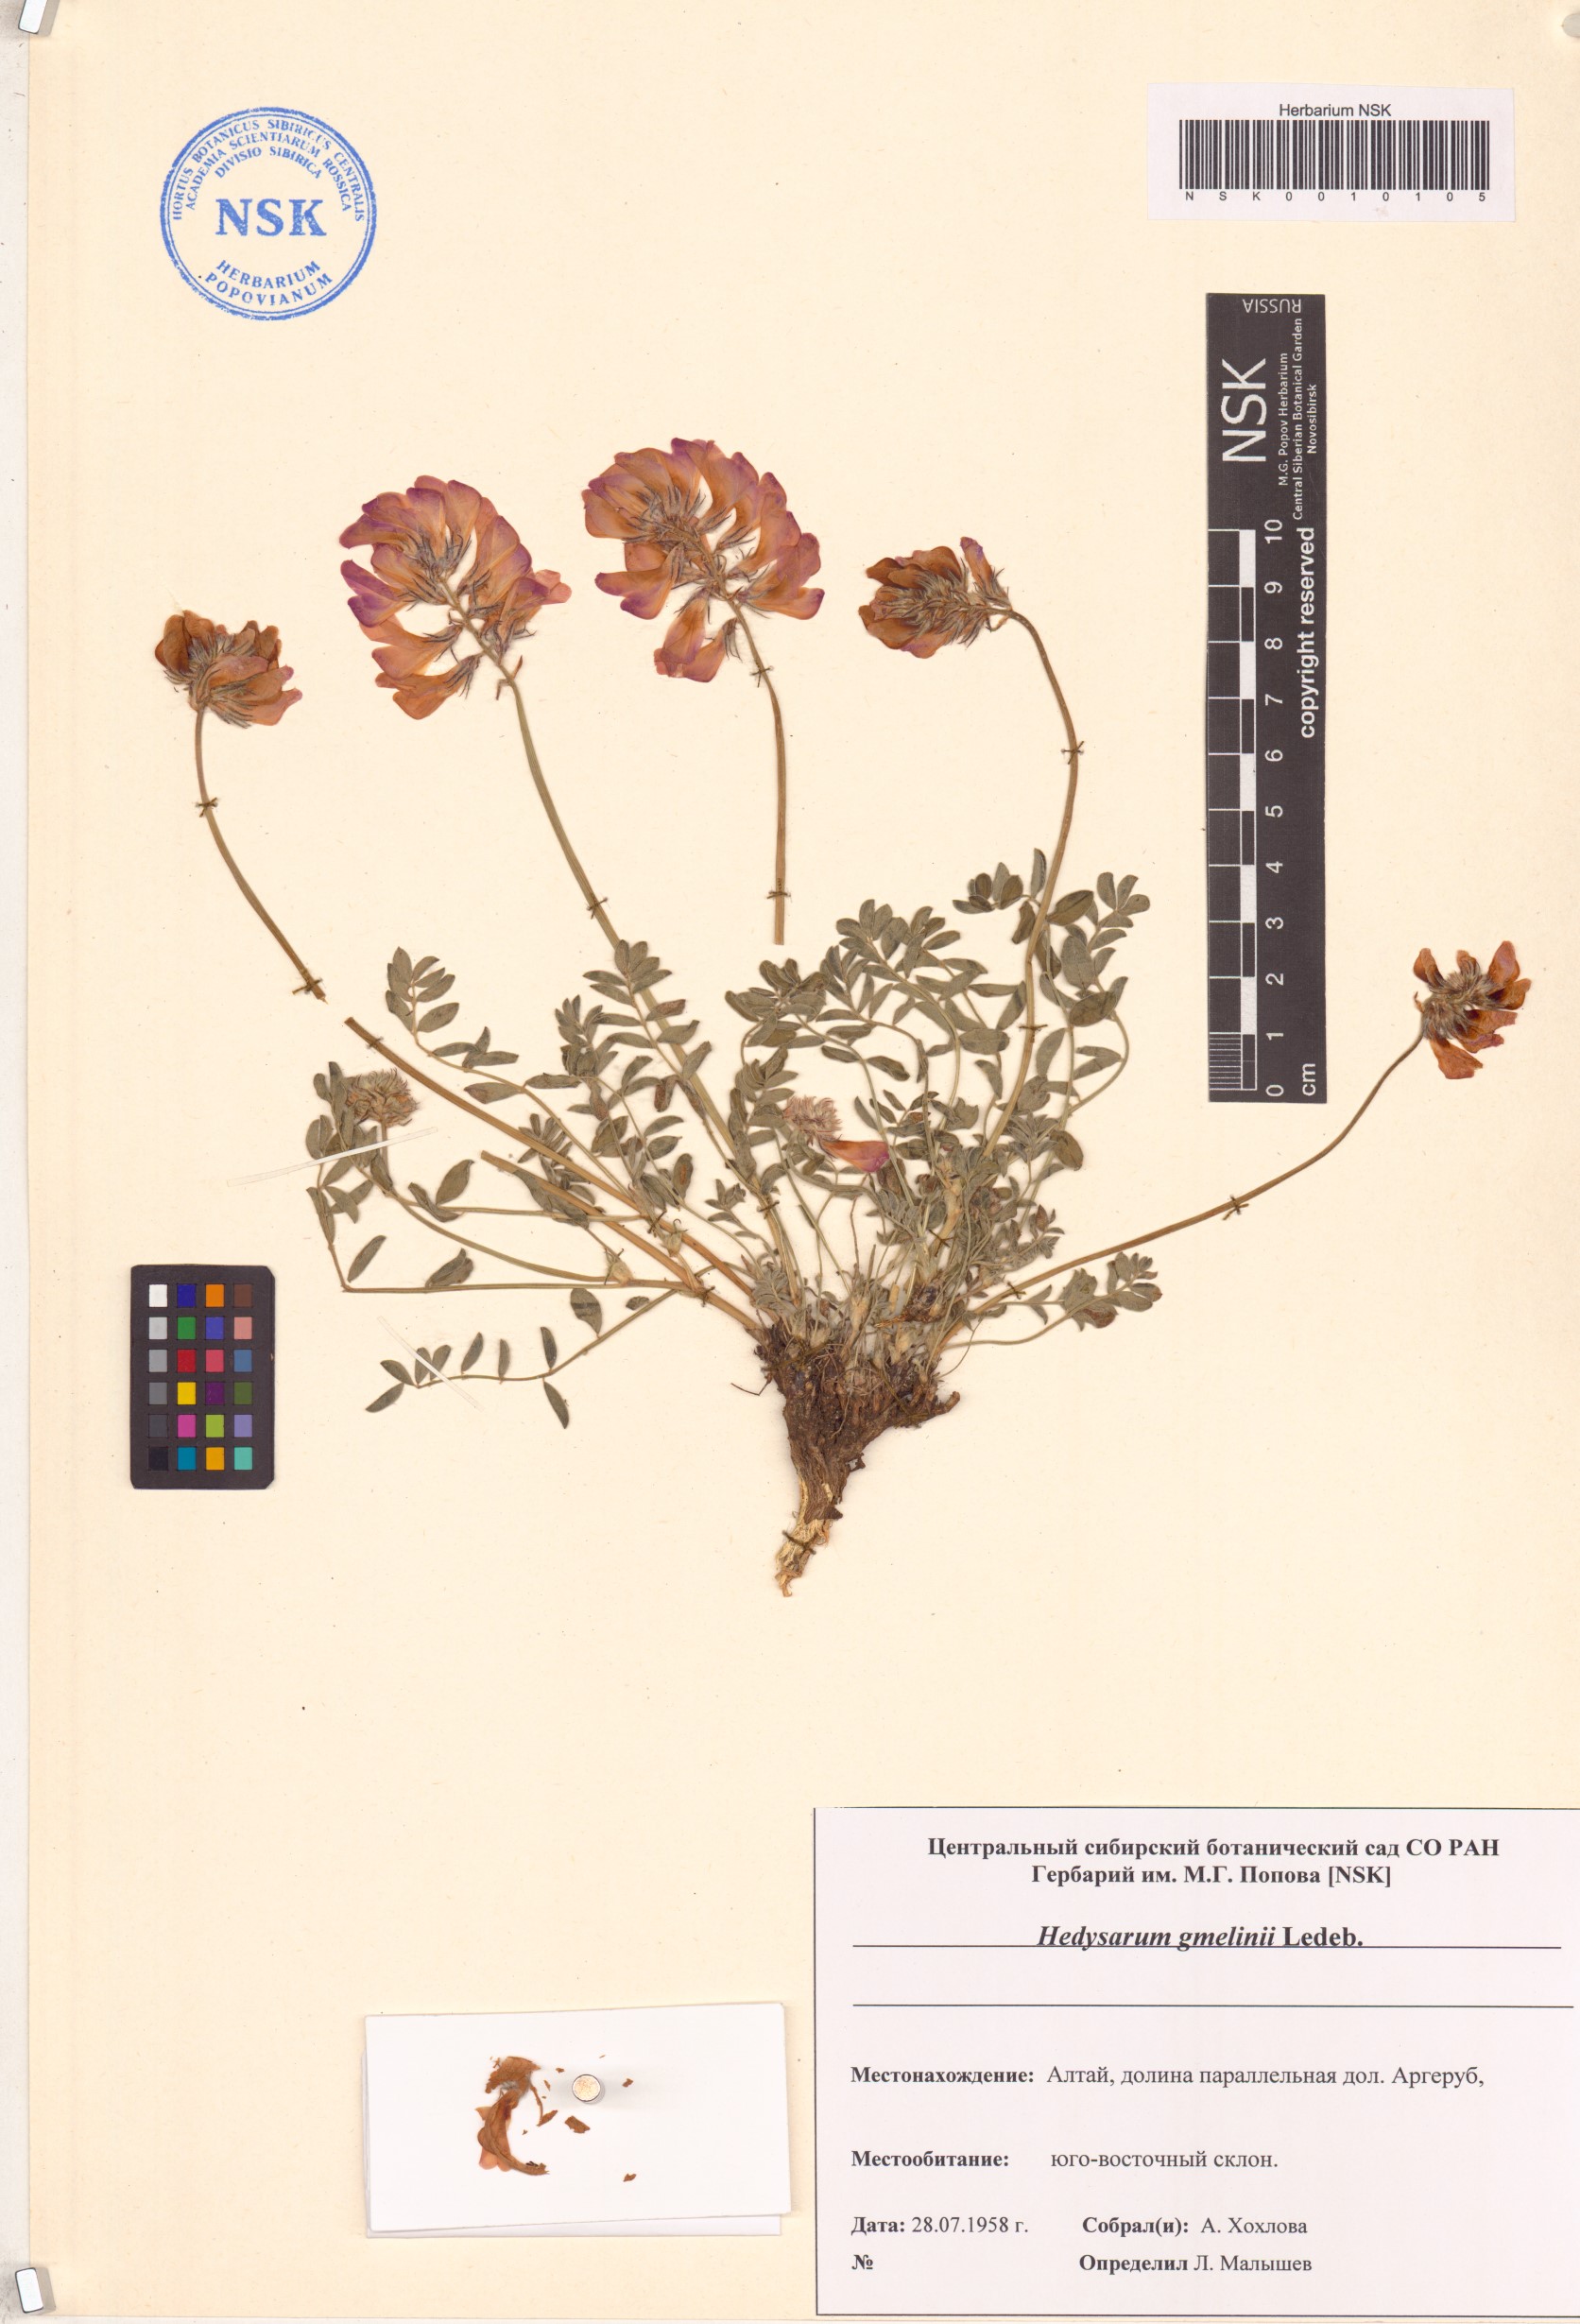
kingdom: Plantae
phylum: Tracheophyta
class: Magnoliopsida
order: Fabales
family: Fabaceae
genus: Hedysarum
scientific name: Hedysarum gmelinii
